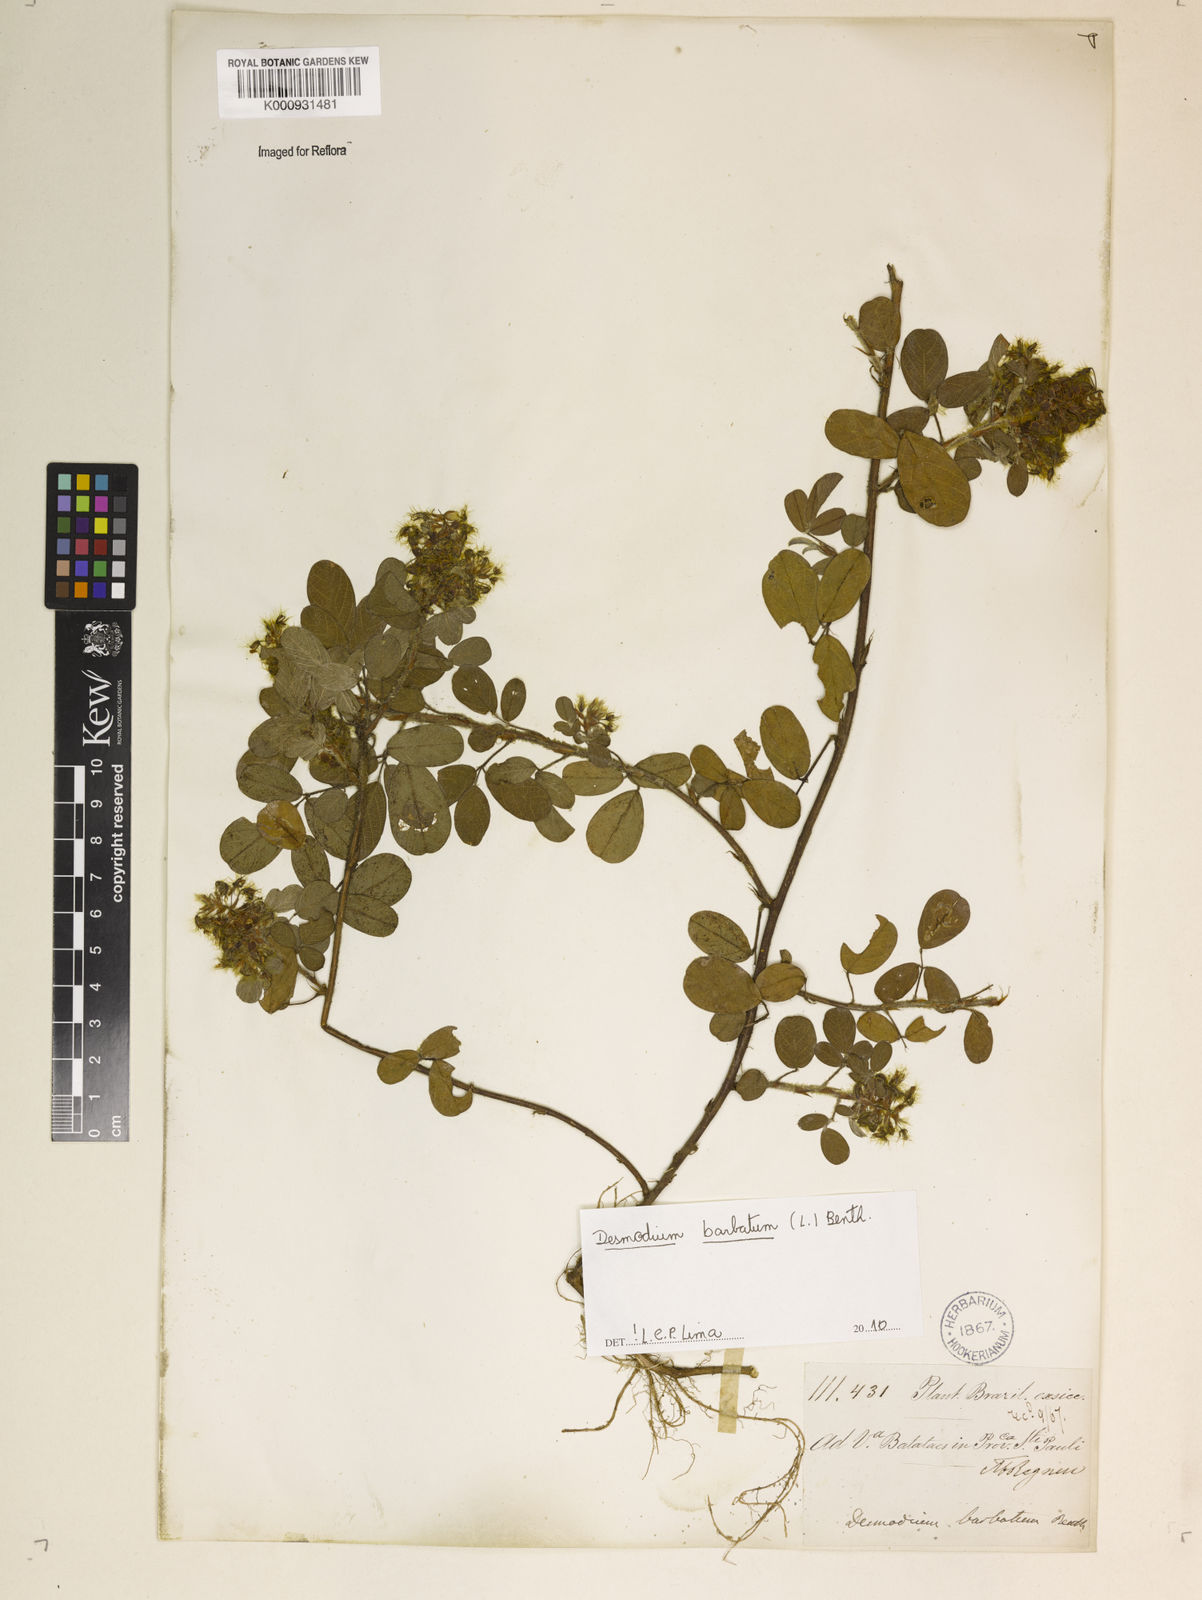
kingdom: Plantae
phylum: Tracheophyta
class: Magnoliopsida
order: Fabales
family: Fabaceae
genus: Grona
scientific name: Grona barbata
